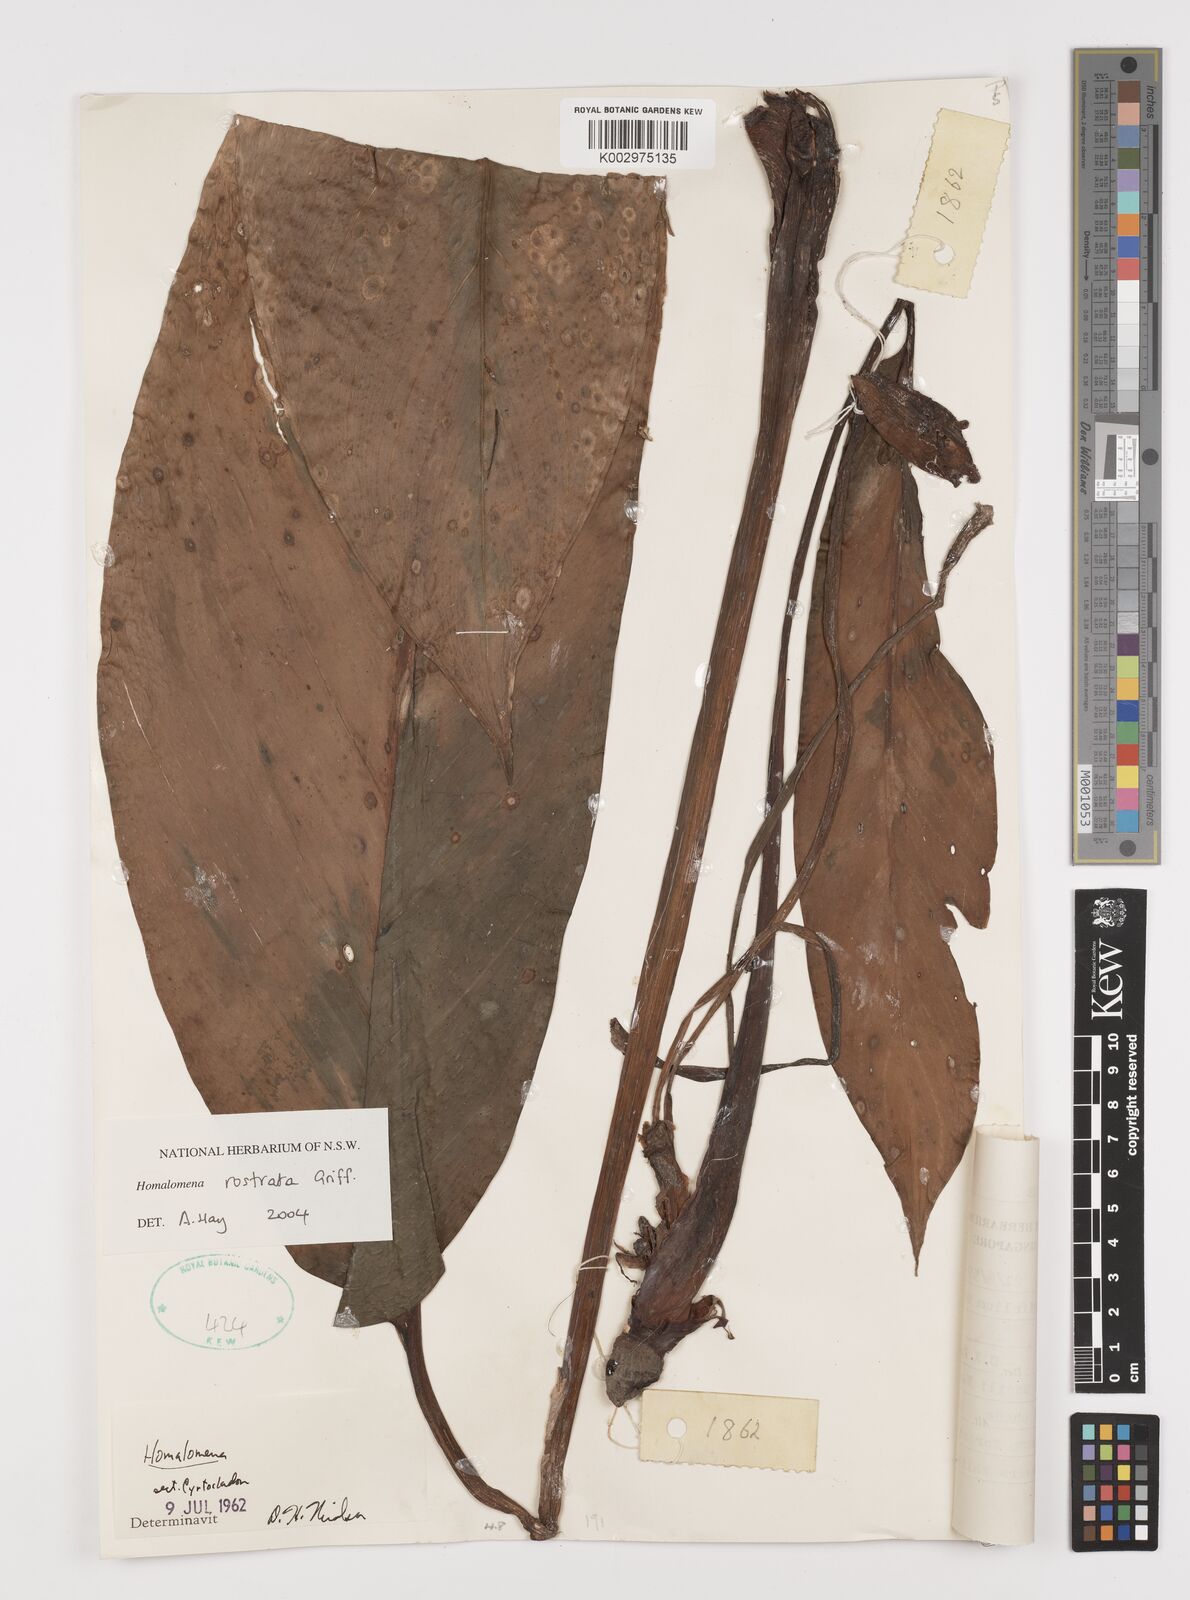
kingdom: Plantae
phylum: Tracheophyta
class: Liliopsida
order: Alismatales
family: Araceae
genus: Homalomena
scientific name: Homalomena rostrata
